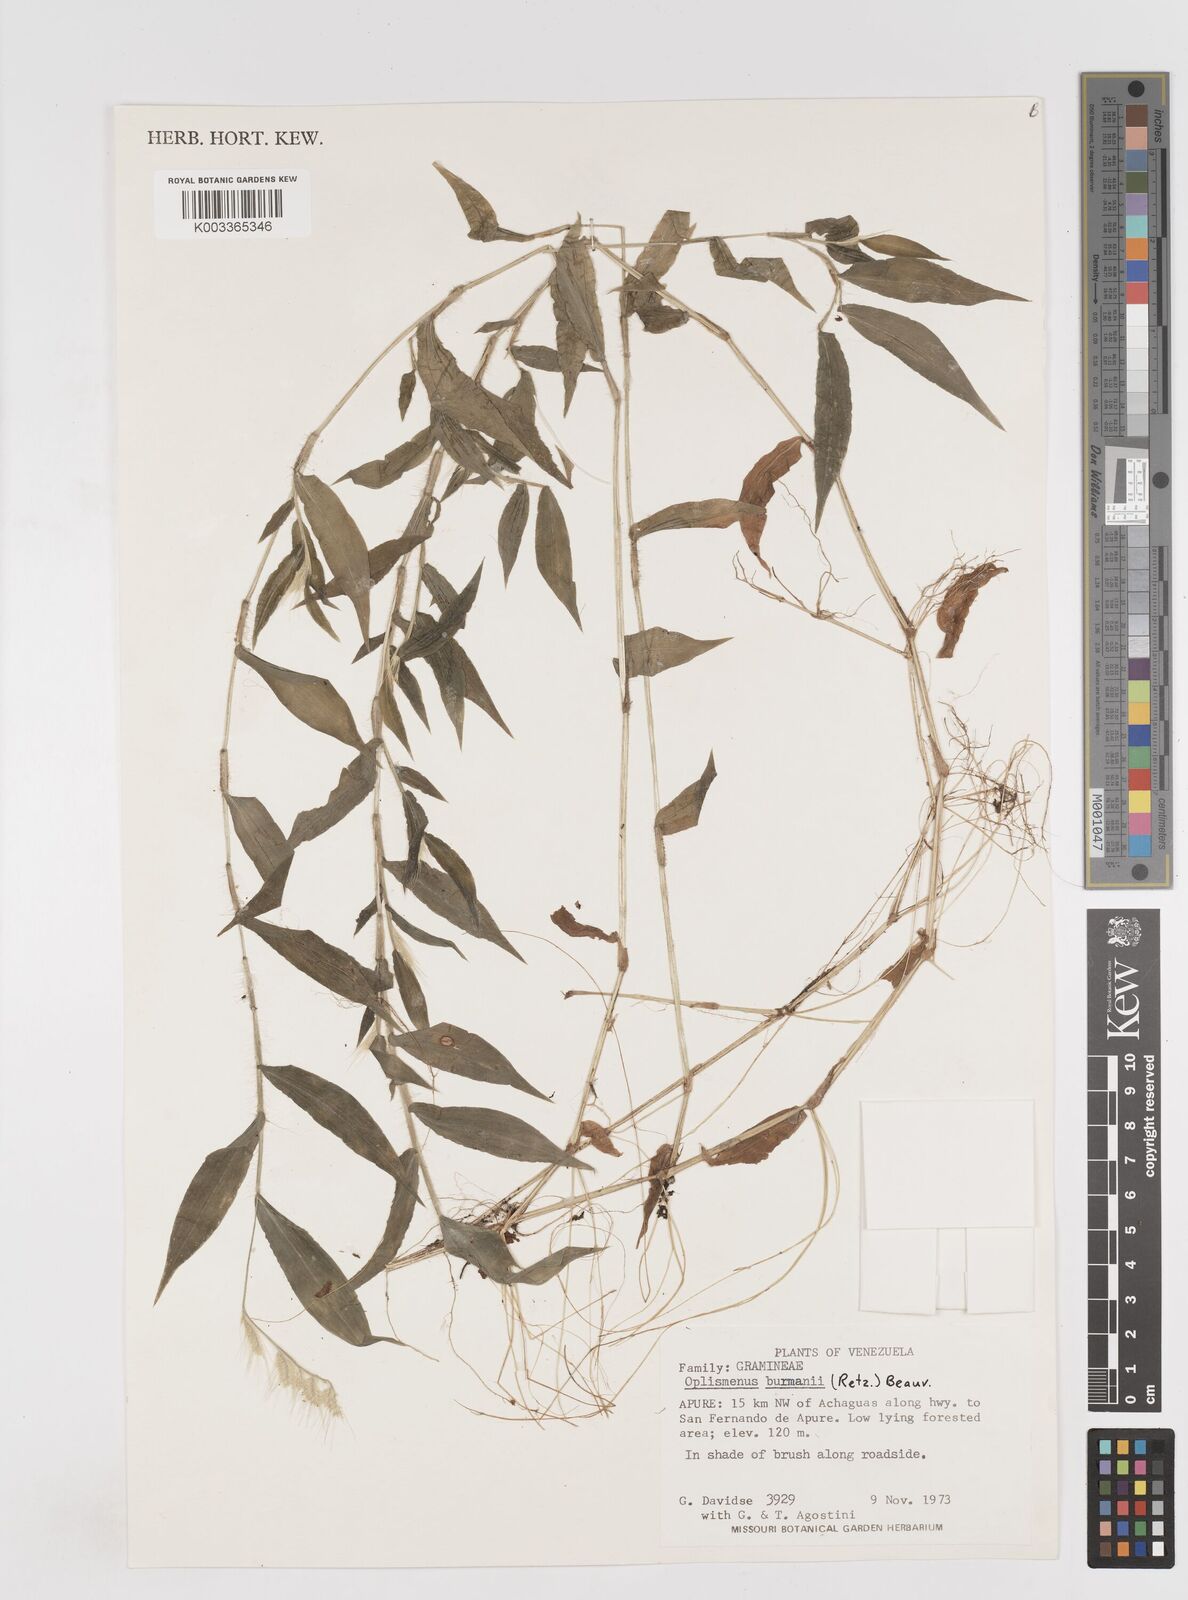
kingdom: Plantae
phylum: Tracheophyta
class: Liliopsida
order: Poales
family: Poaceae
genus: Oplismenus
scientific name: Oplismenus burmanni
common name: Burmann's basketgrass
